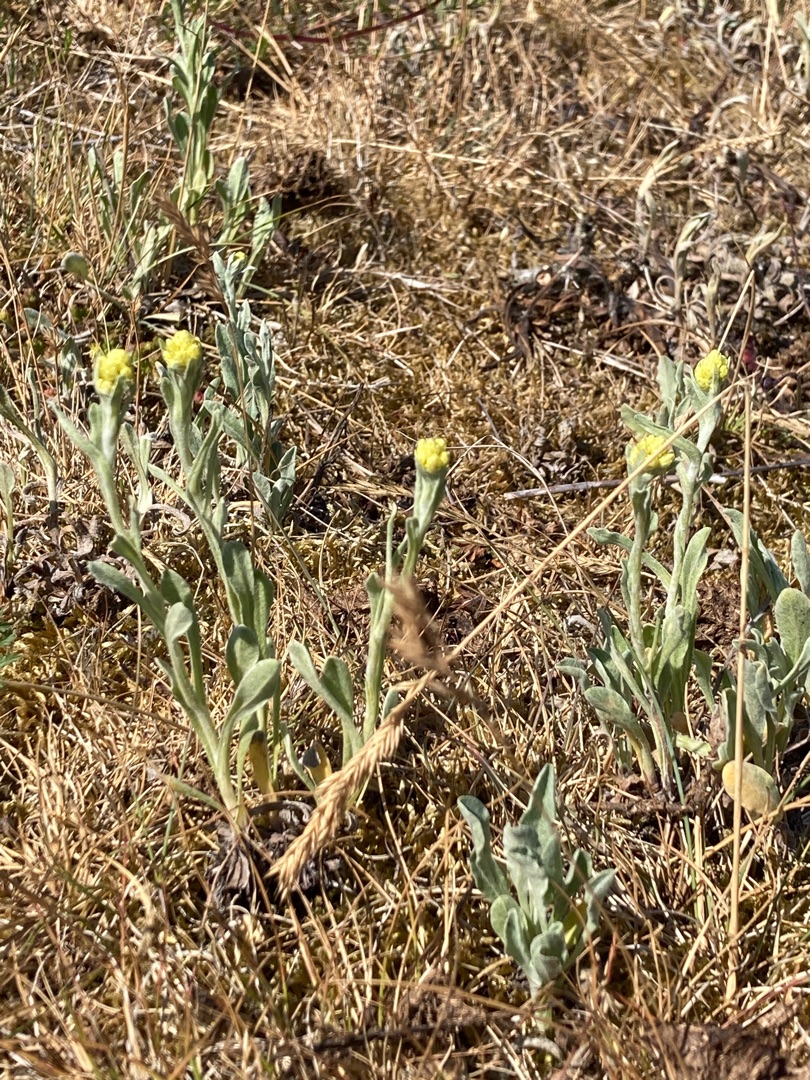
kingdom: Plantae
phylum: Tracheophyta
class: Magnoliopsida
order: Asterales
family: Asteraceae
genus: Helichrysum
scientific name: Helichrysum arenarium
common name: Gul evighedsblomst
